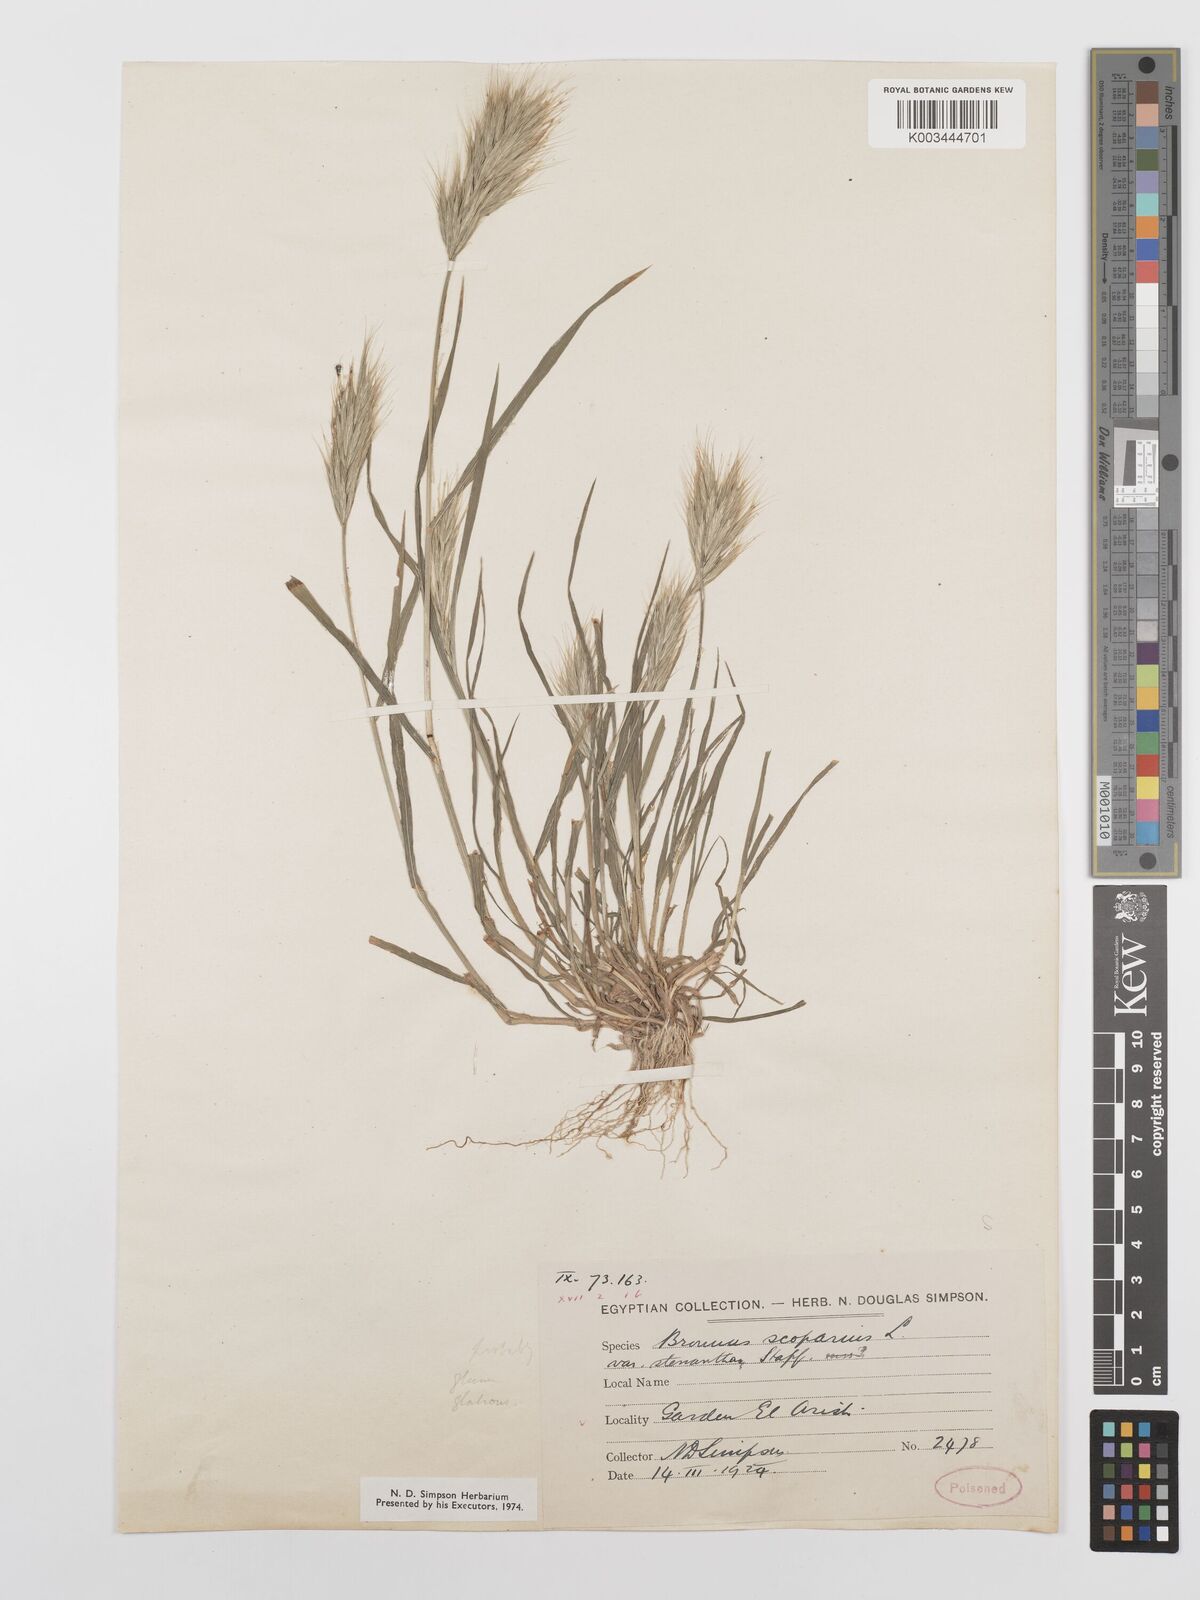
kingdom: Plantae
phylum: Tracheophyta
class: Liliopsida
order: Poales
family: Poaceae
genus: Bromus
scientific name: Bromus scoparius
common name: Broom brome
